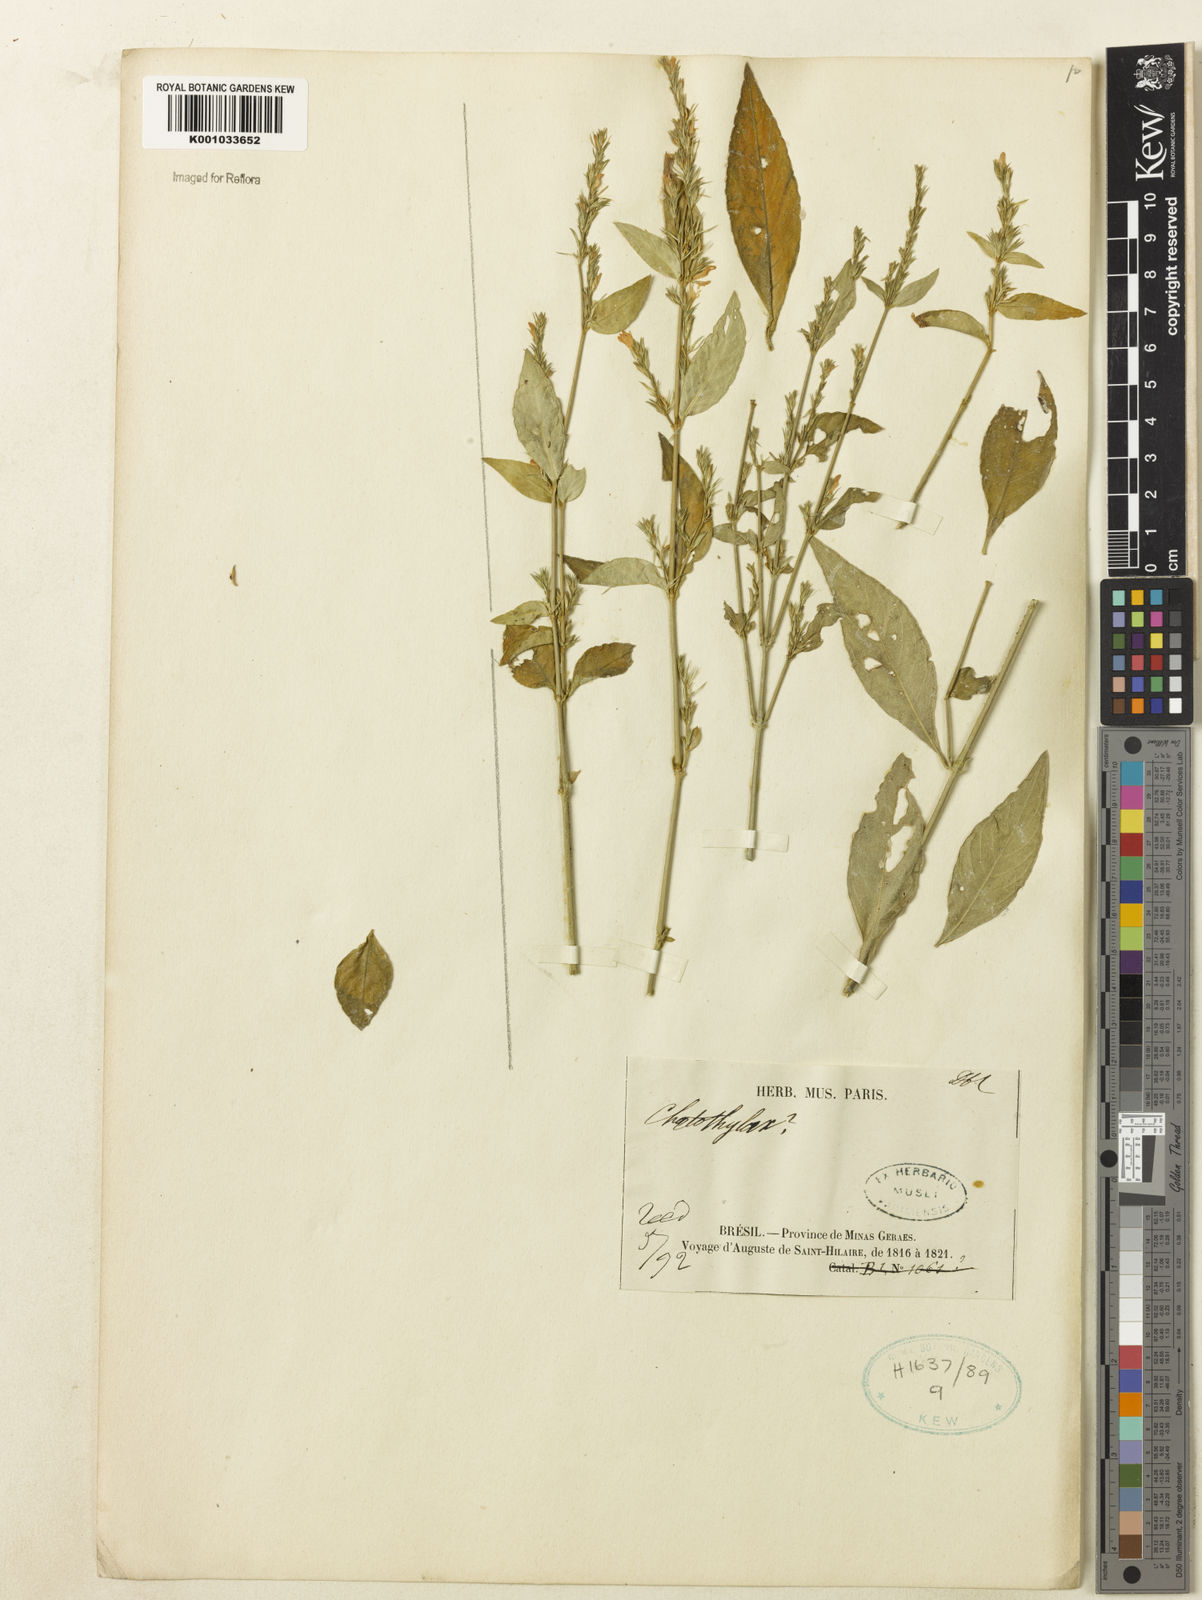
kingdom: Plantae
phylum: Tracheophyta
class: Magnoliopsida
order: Lamiales
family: Acanthaceae
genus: Justicia
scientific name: Justicia
